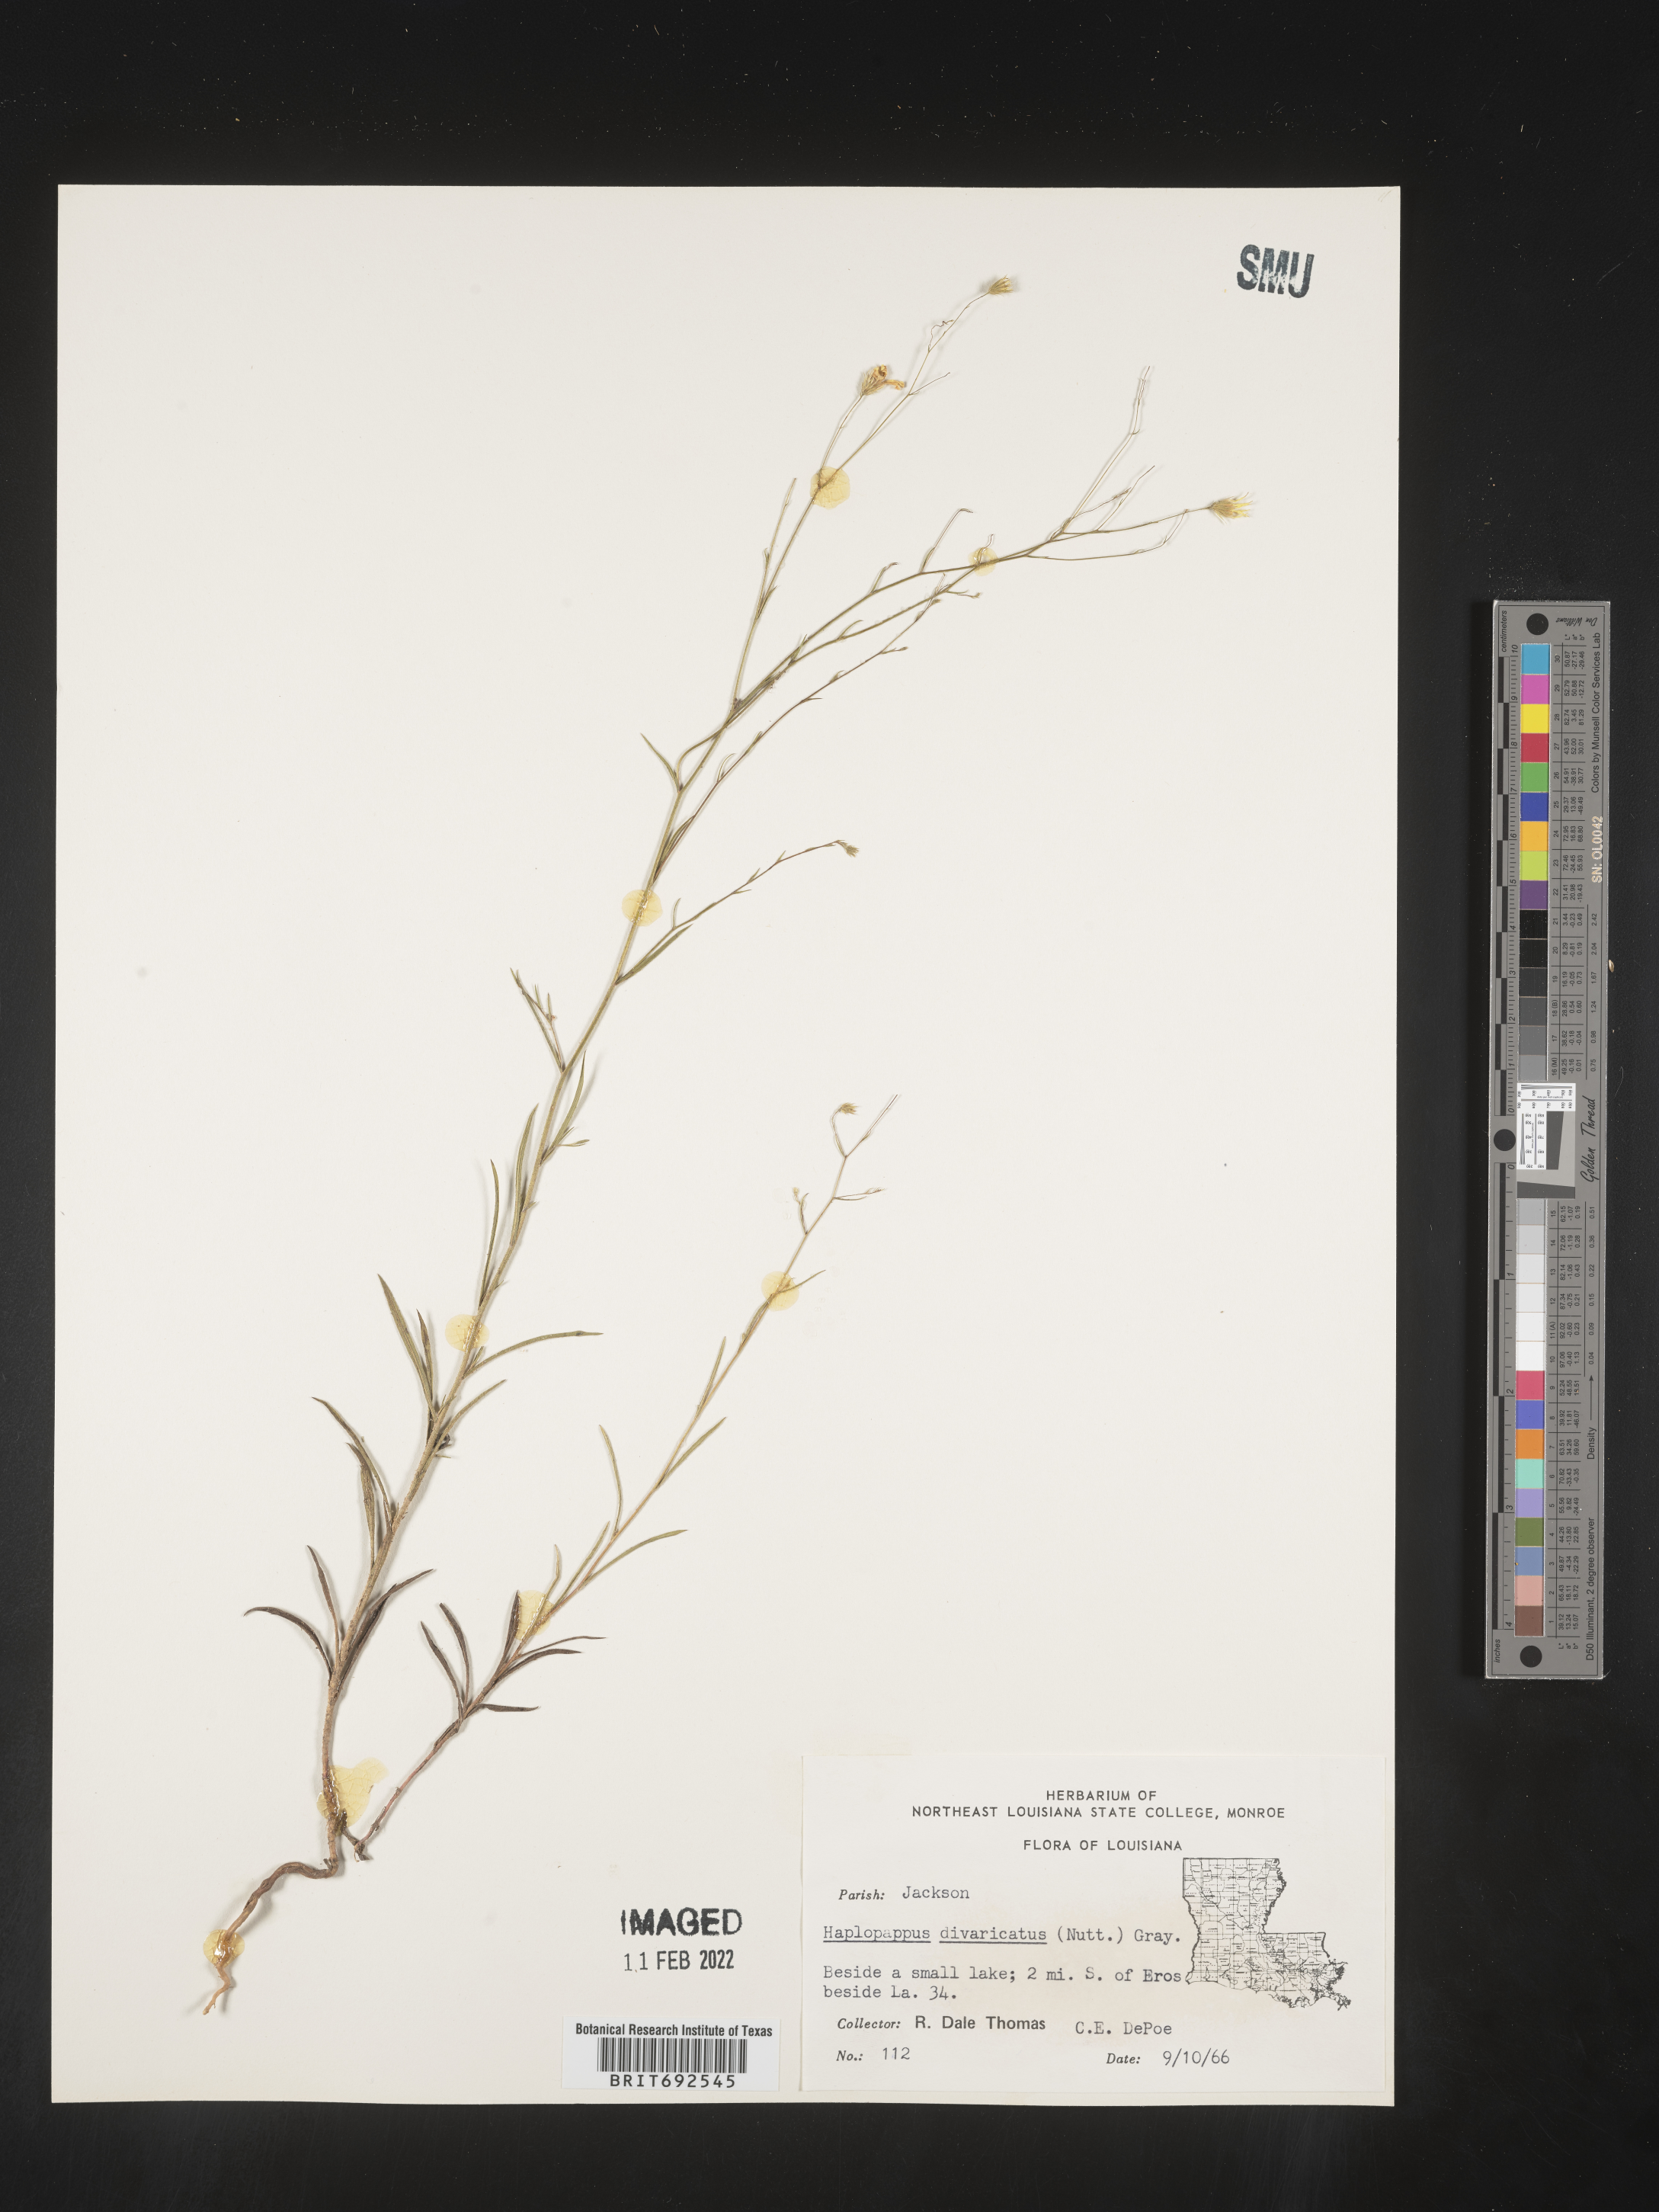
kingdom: Plantae
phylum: Tracheophyta
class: Magnoliopsida
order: Asterales
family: Asteraceae
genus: Croptilon
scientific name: Croptilon divaricatum
